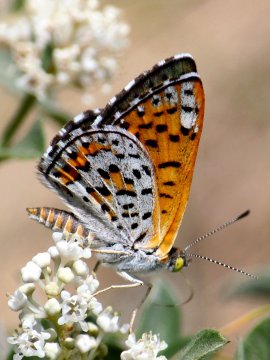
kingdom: Animalia
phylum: Arthropoda
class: Insecta
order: Lepidoptera
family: Riodinidae
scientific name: Riodinidae
